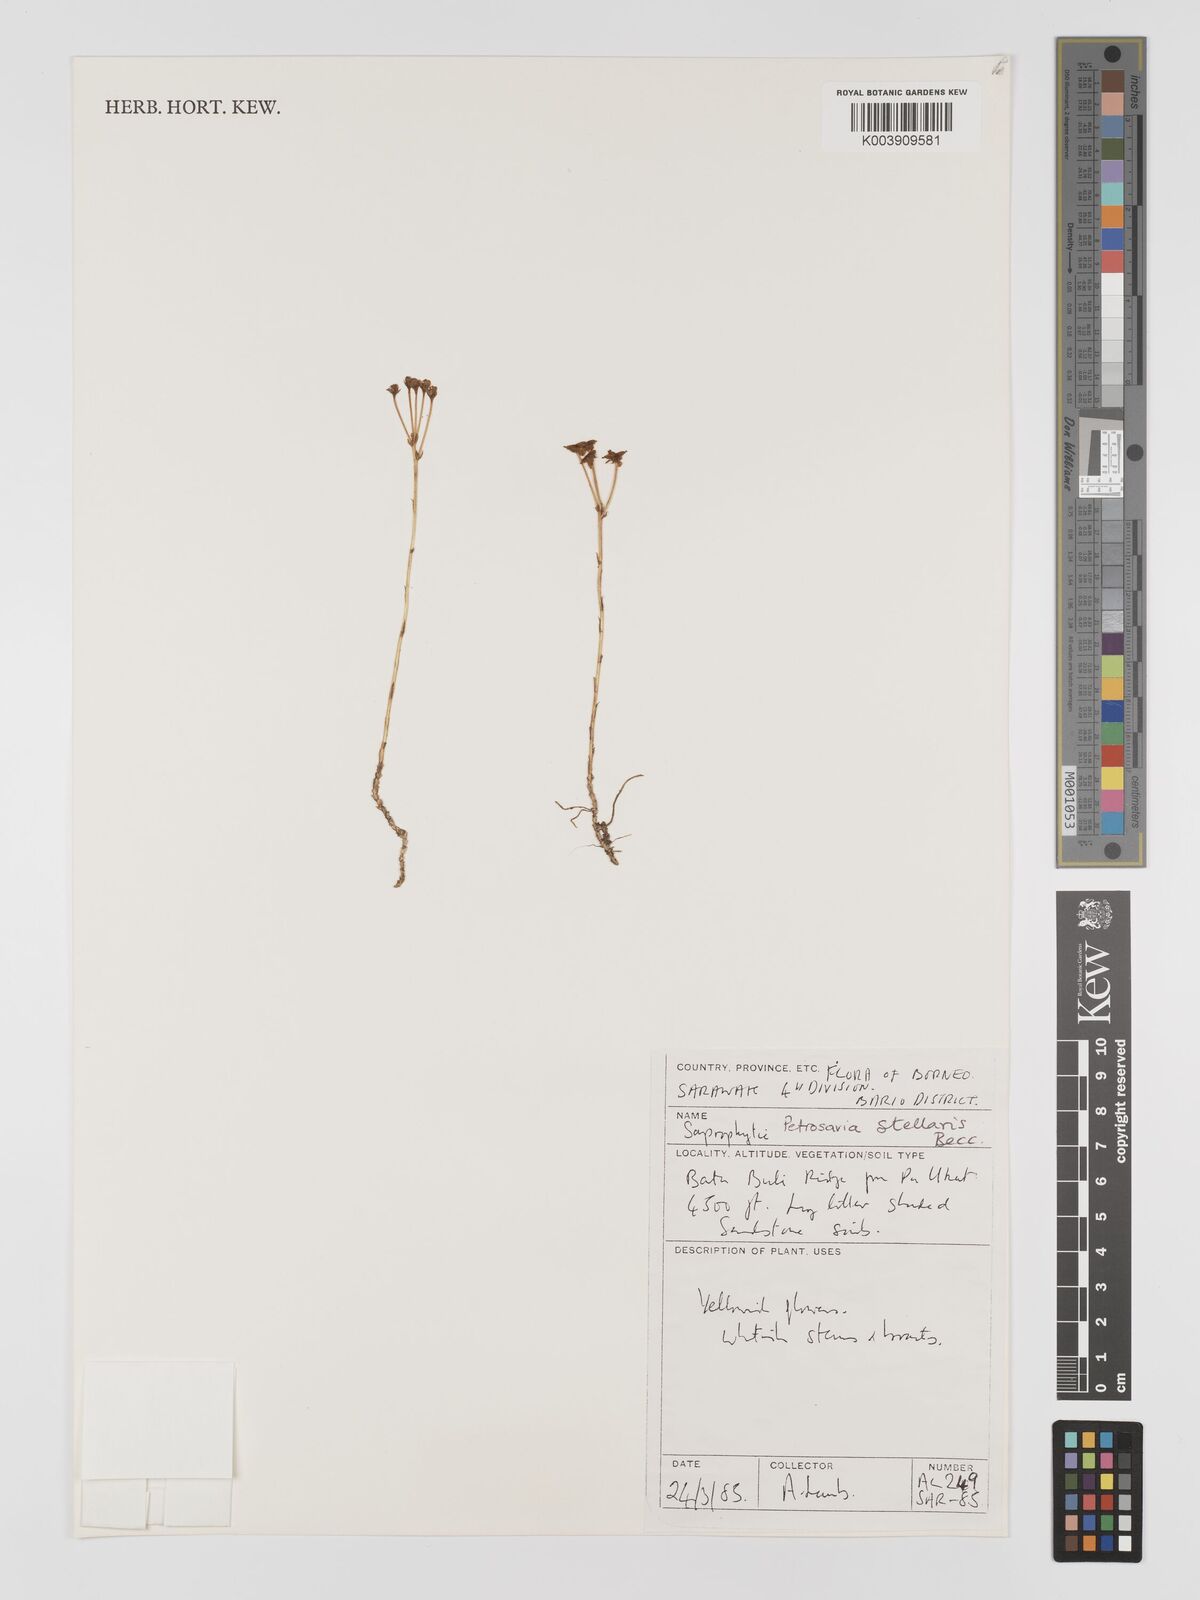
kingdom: Plantae
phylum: Tracheophyta
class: Liliopsida
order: Petrosaviales
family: Petrosaviaceae
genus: Petrosavia
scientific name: Petrosavia stellaris
